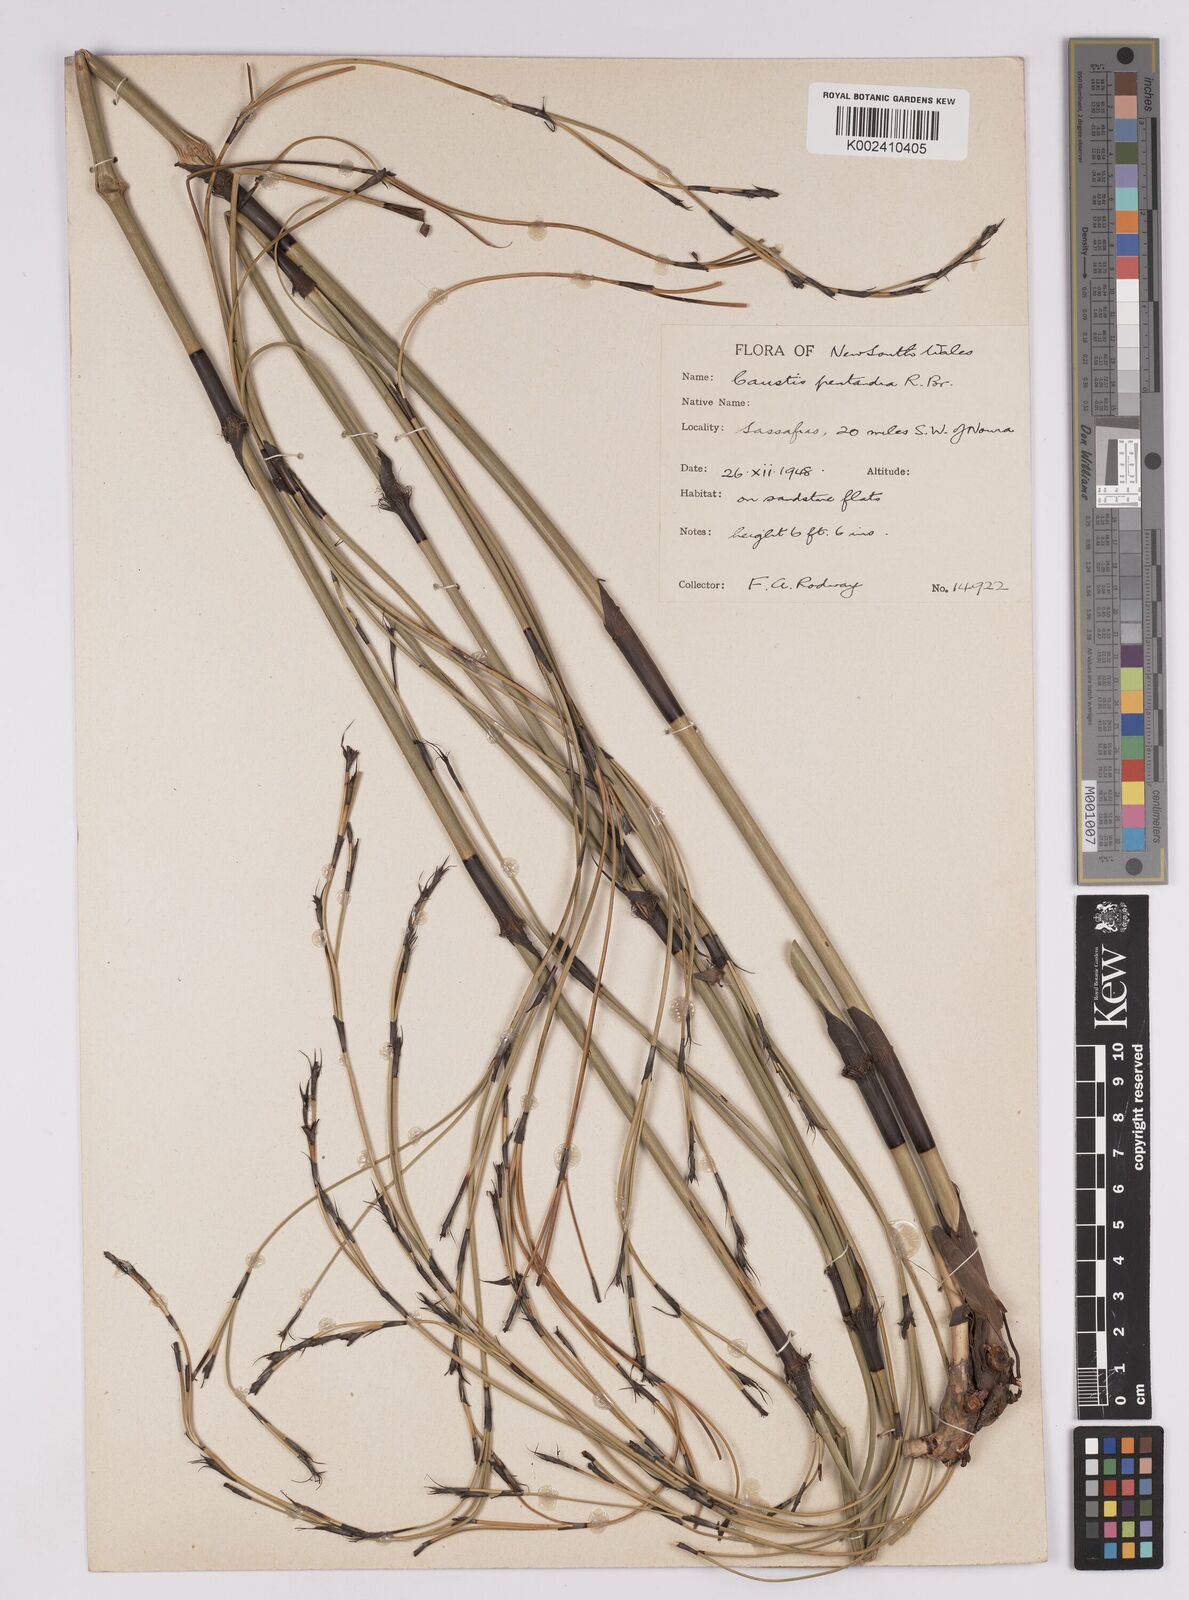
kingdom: Plantae
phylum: Tracheophyta
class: Liliopsida
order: Poales
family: Cyperaceae
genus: Caustis
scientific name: Caustis pentandra
